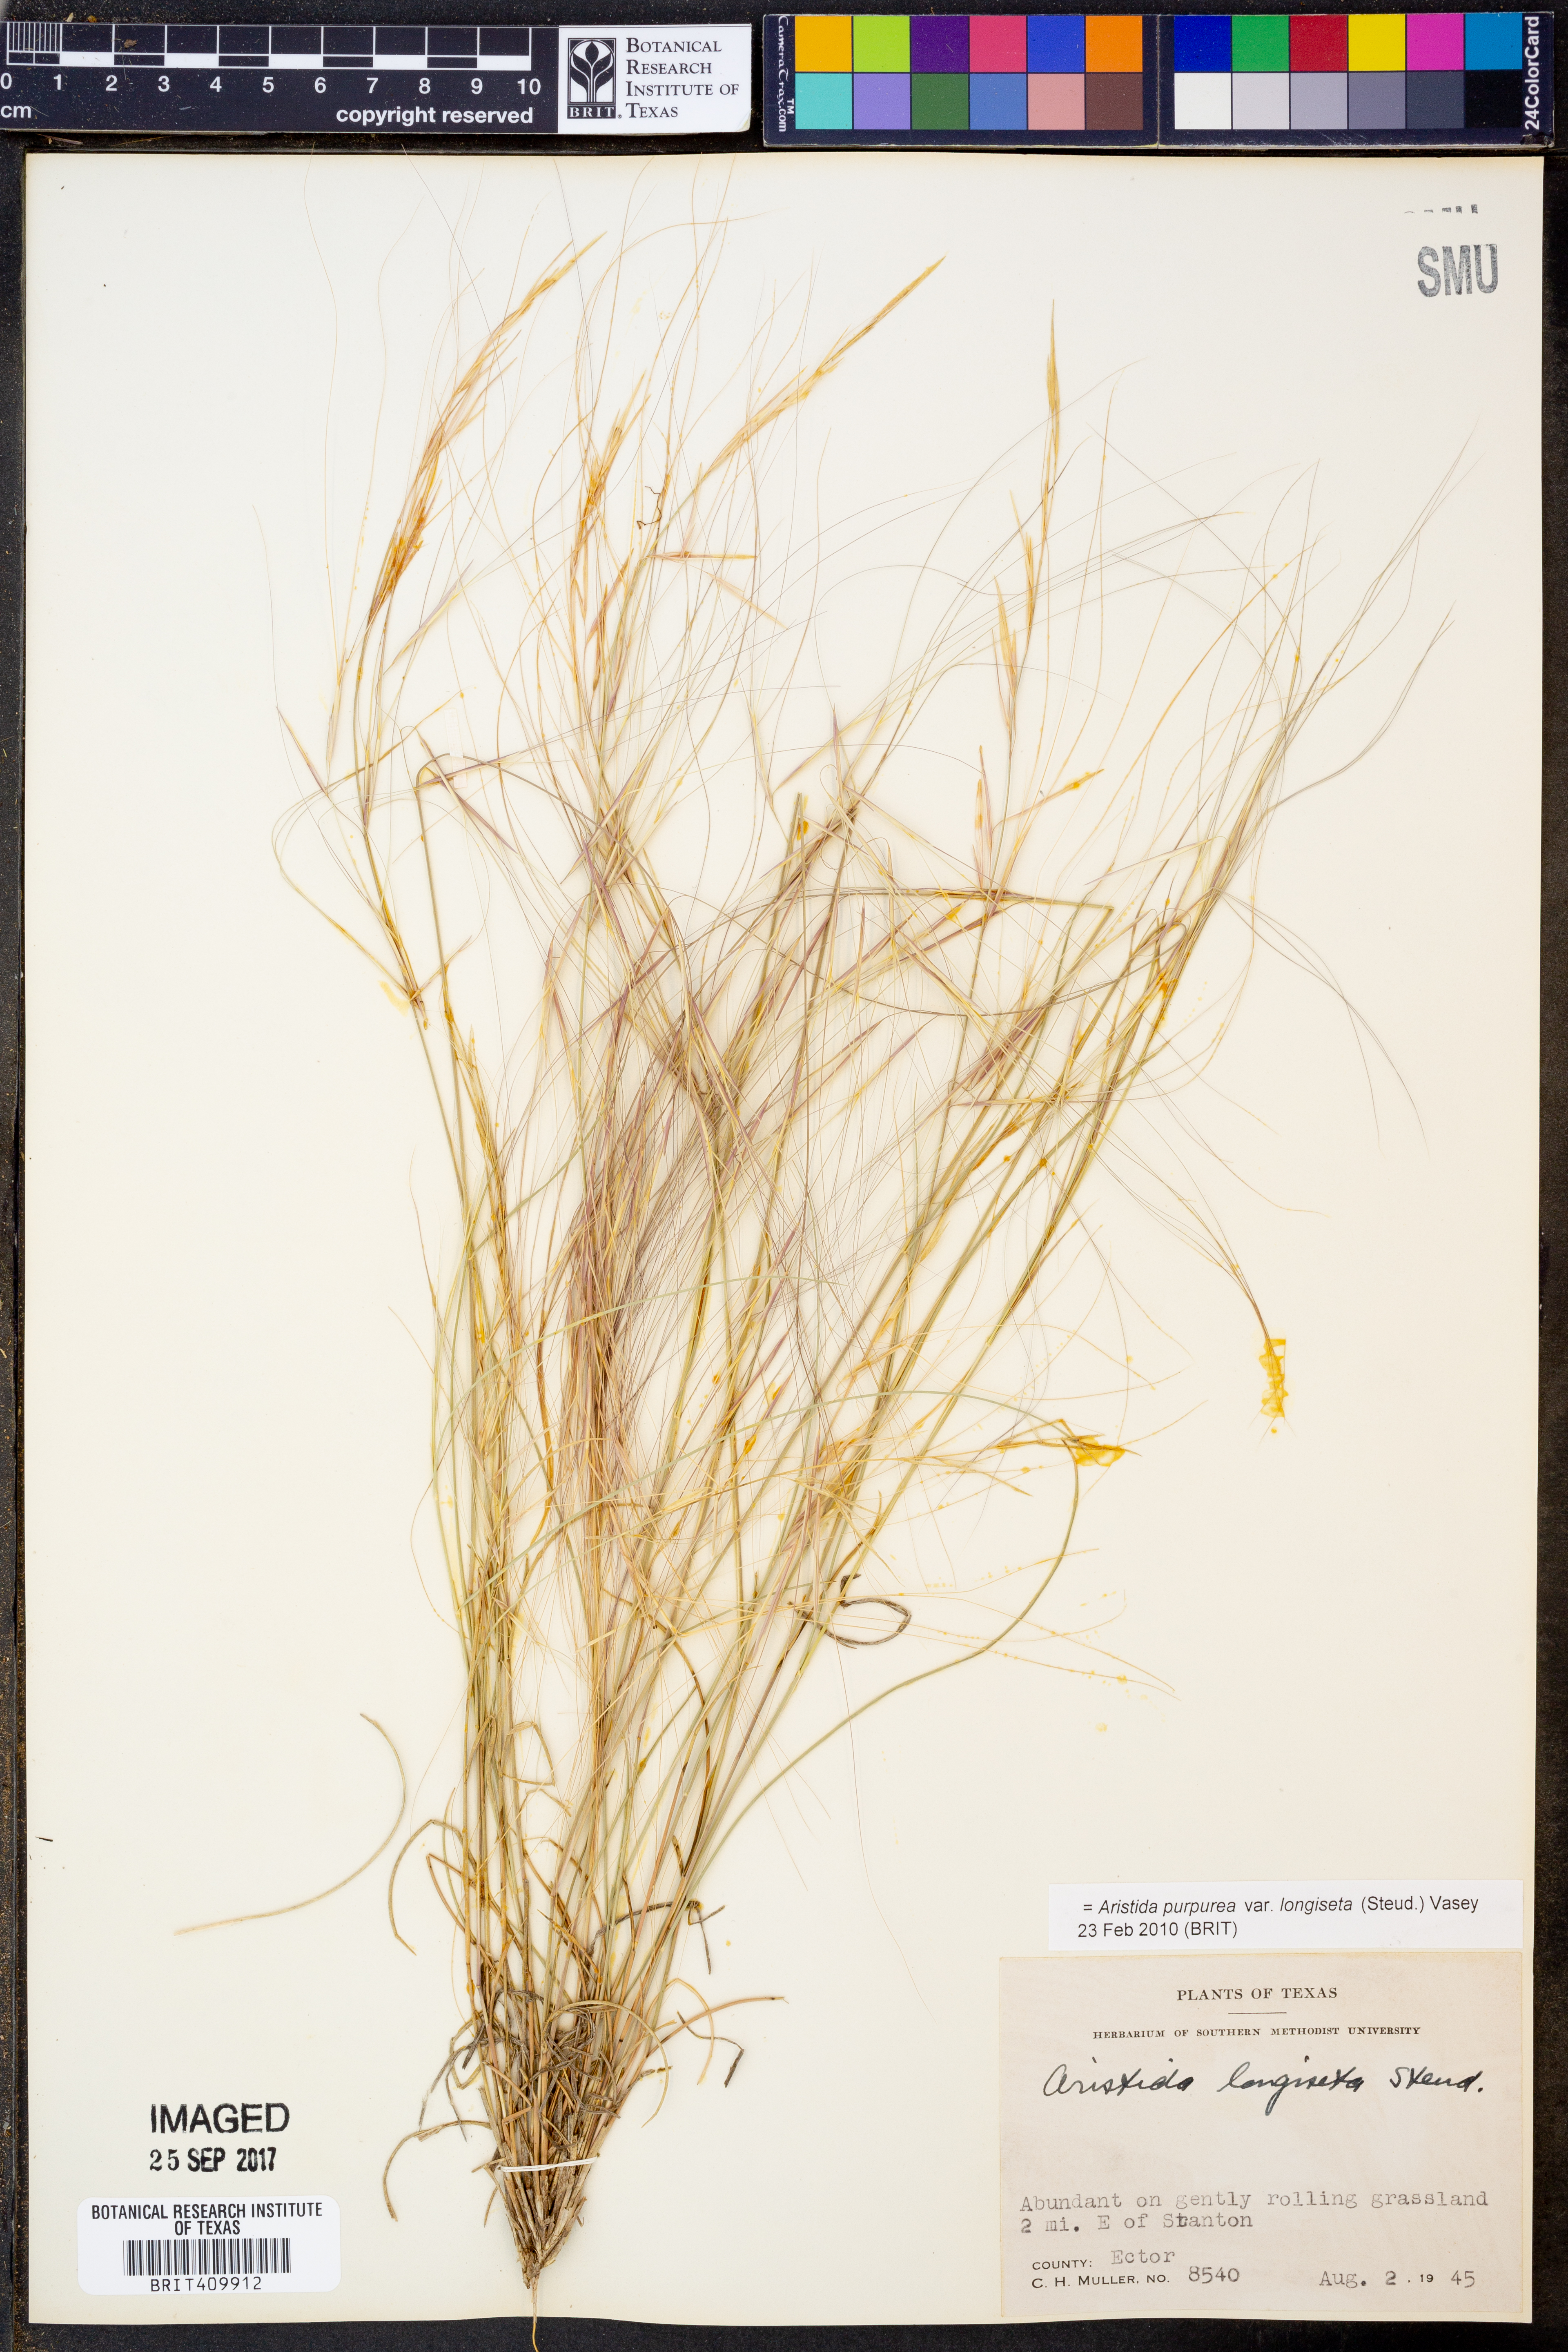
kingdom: Plantae
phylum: Tracheophyta
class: Liliopsida
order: Poales
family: Poaceae
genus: Aristida
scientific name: Aristida longiseta
